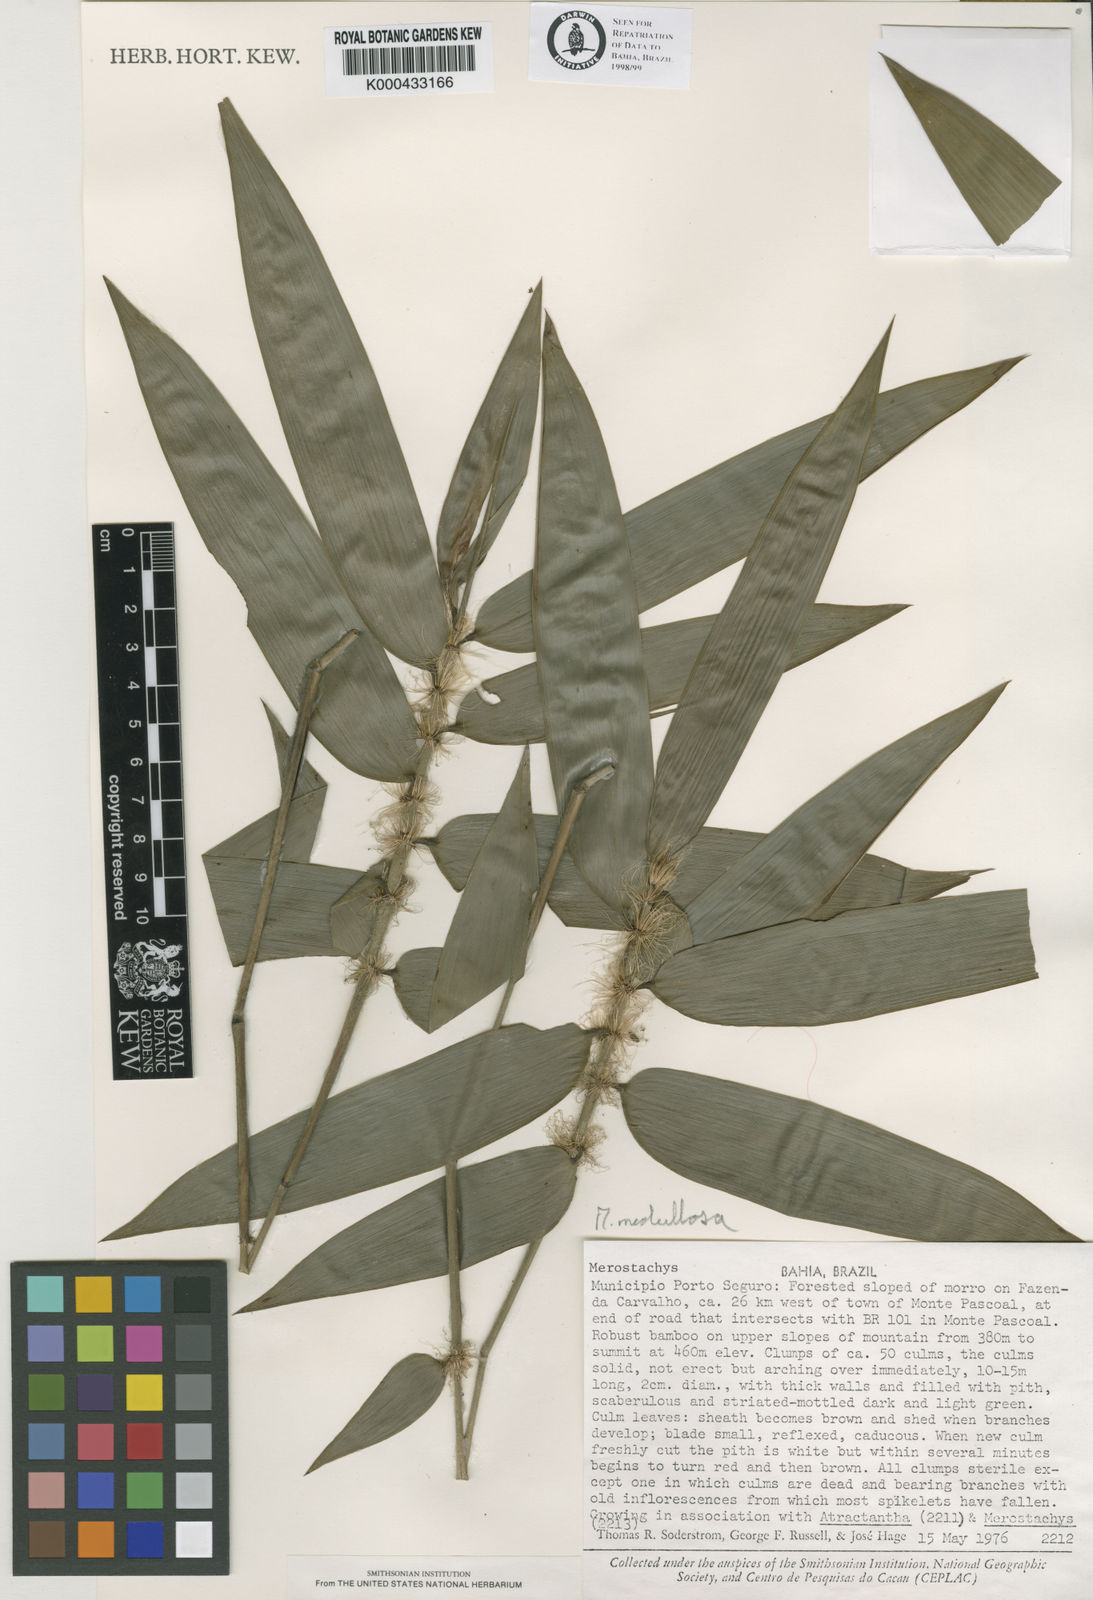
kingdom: Plantae
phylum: Tracheophyta
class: Liliopsida
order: Poales
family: Poaceae
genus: Merostachys
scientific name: Merostachys medullosa
